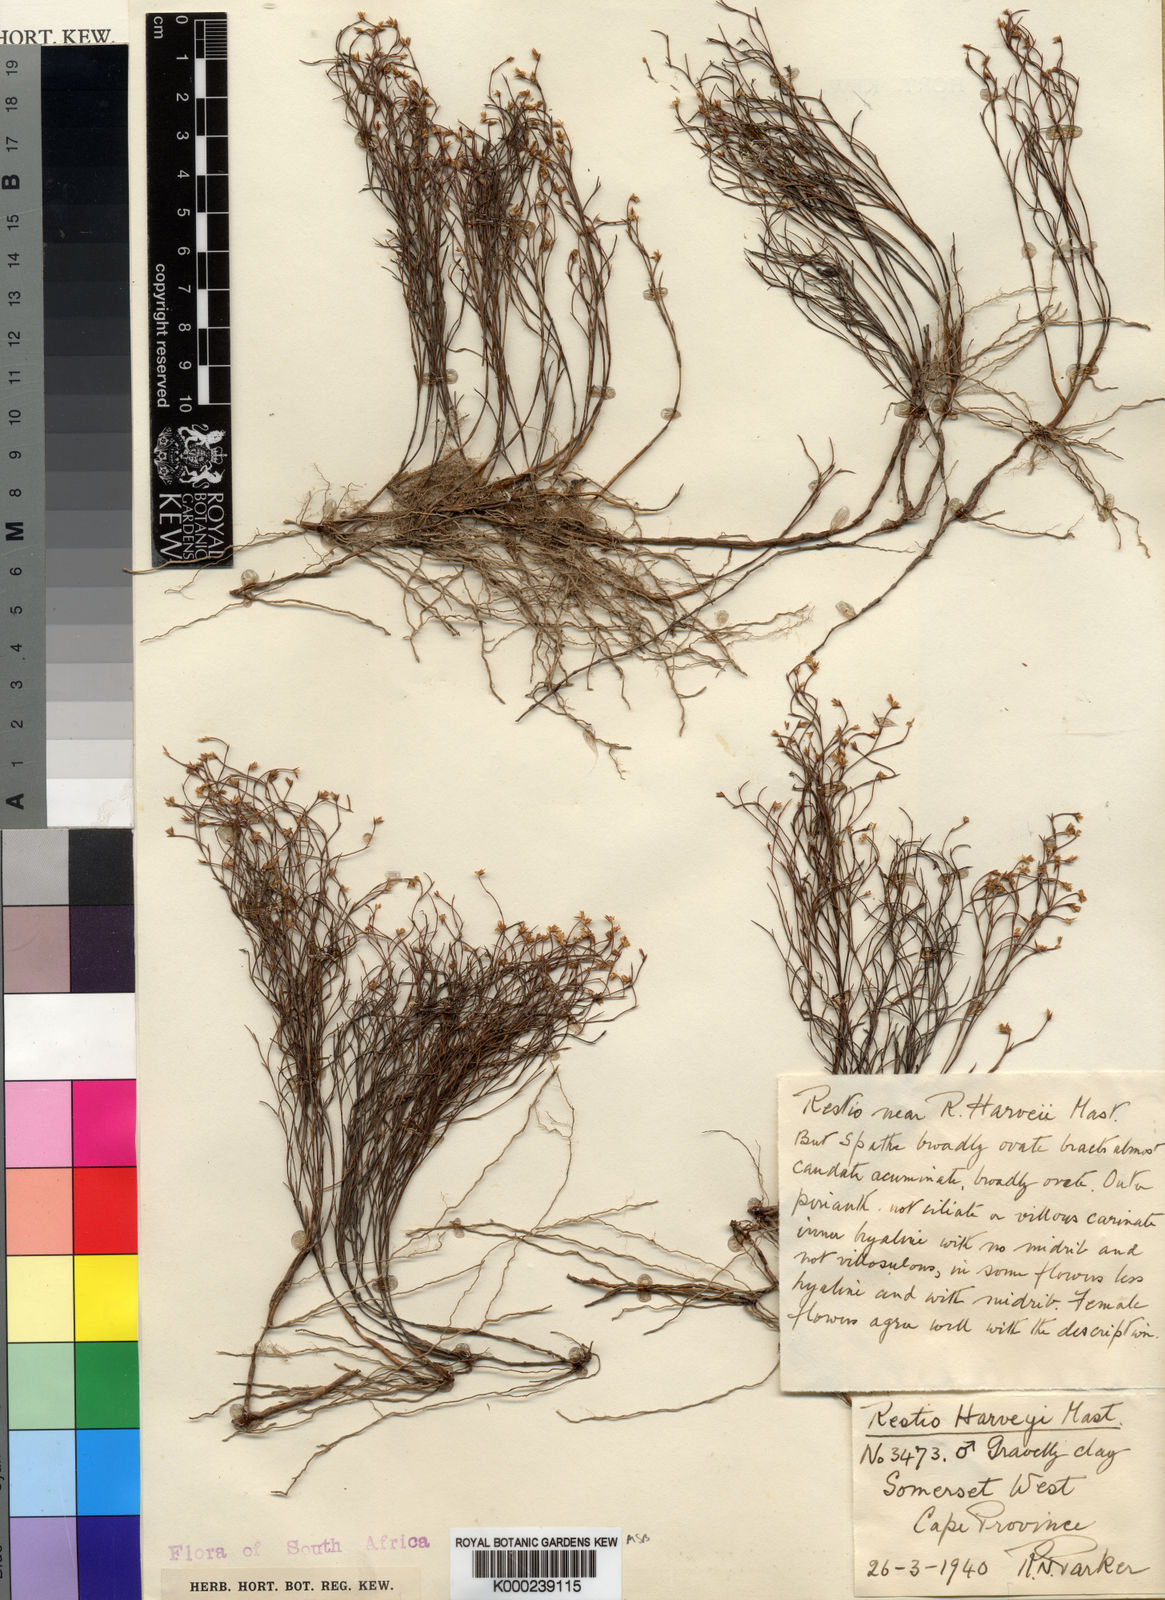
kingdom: Plantae
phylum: Tracheophyta
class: Liliopsida
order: Poales
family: Restionaceae
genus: Restio
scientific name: Restio harveyi
